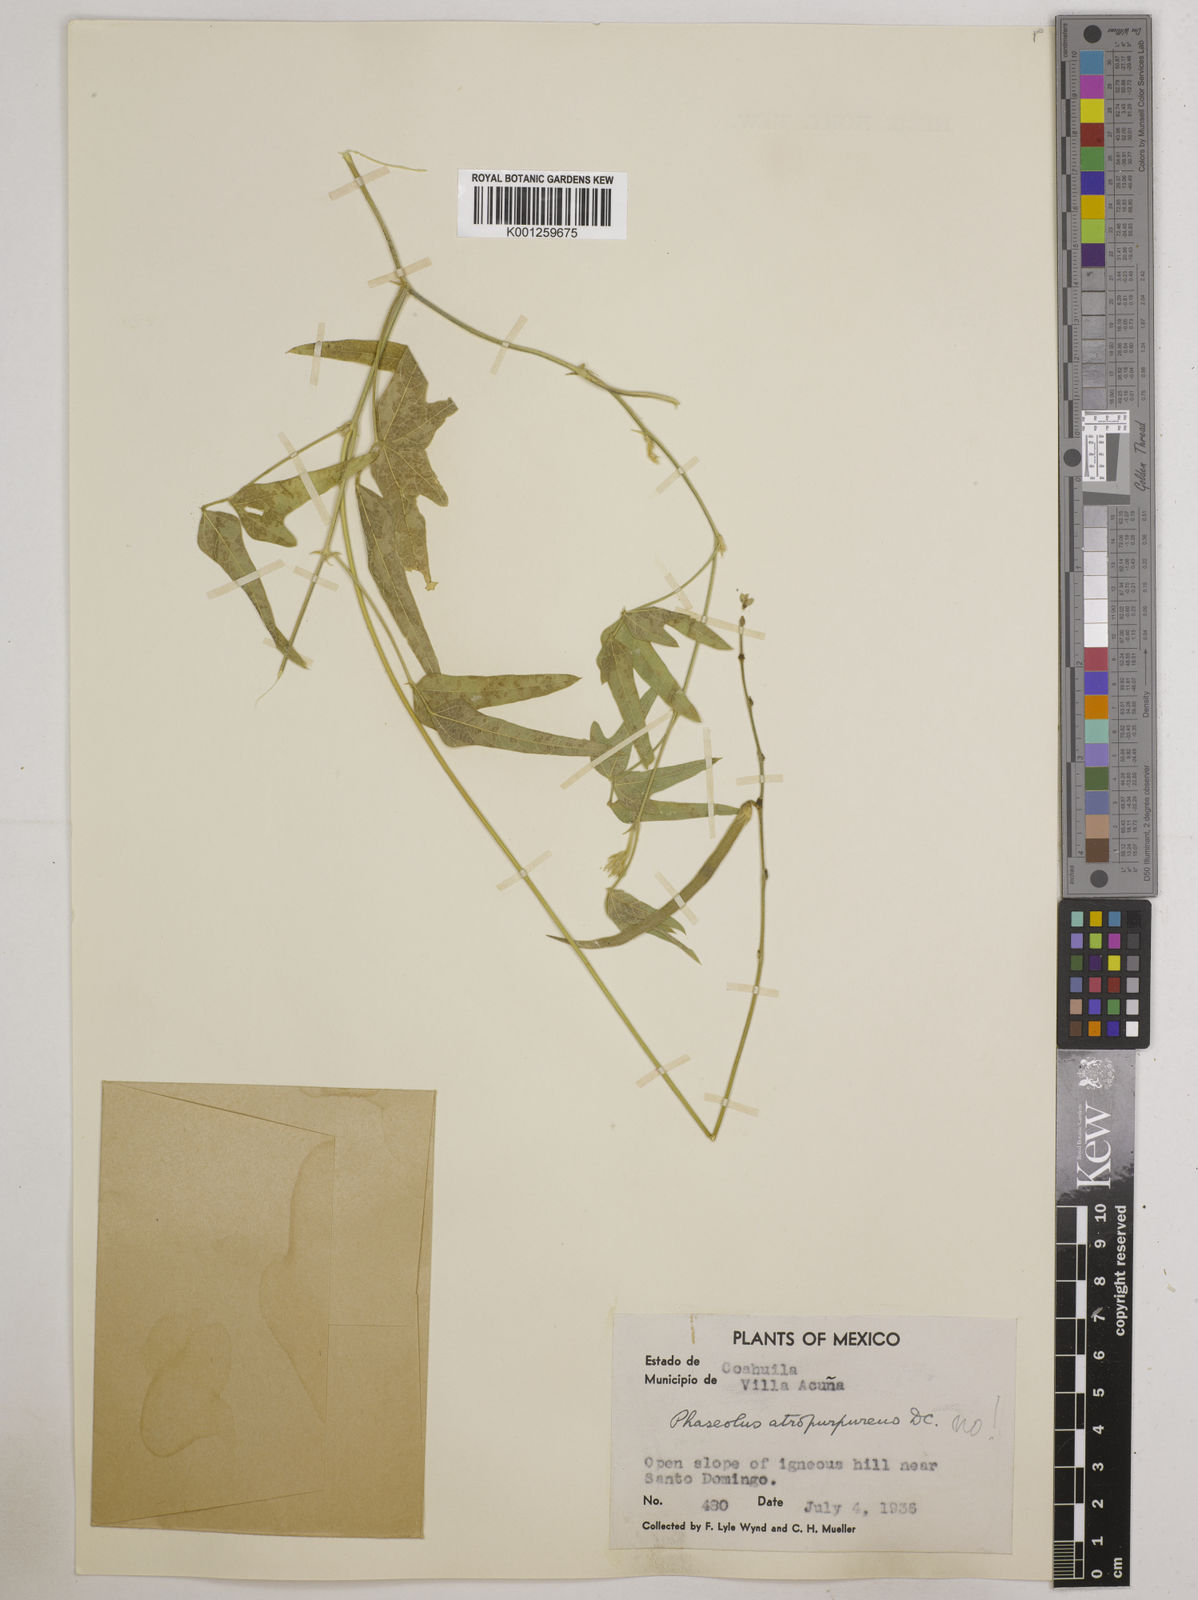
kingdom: Plantae
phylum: Tracheophyta
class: Magnoliopsida
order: Fabales
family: Fabaceae
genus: Macroptilium
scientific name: Macroptilium atropurpureum
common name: Purple bushbean
